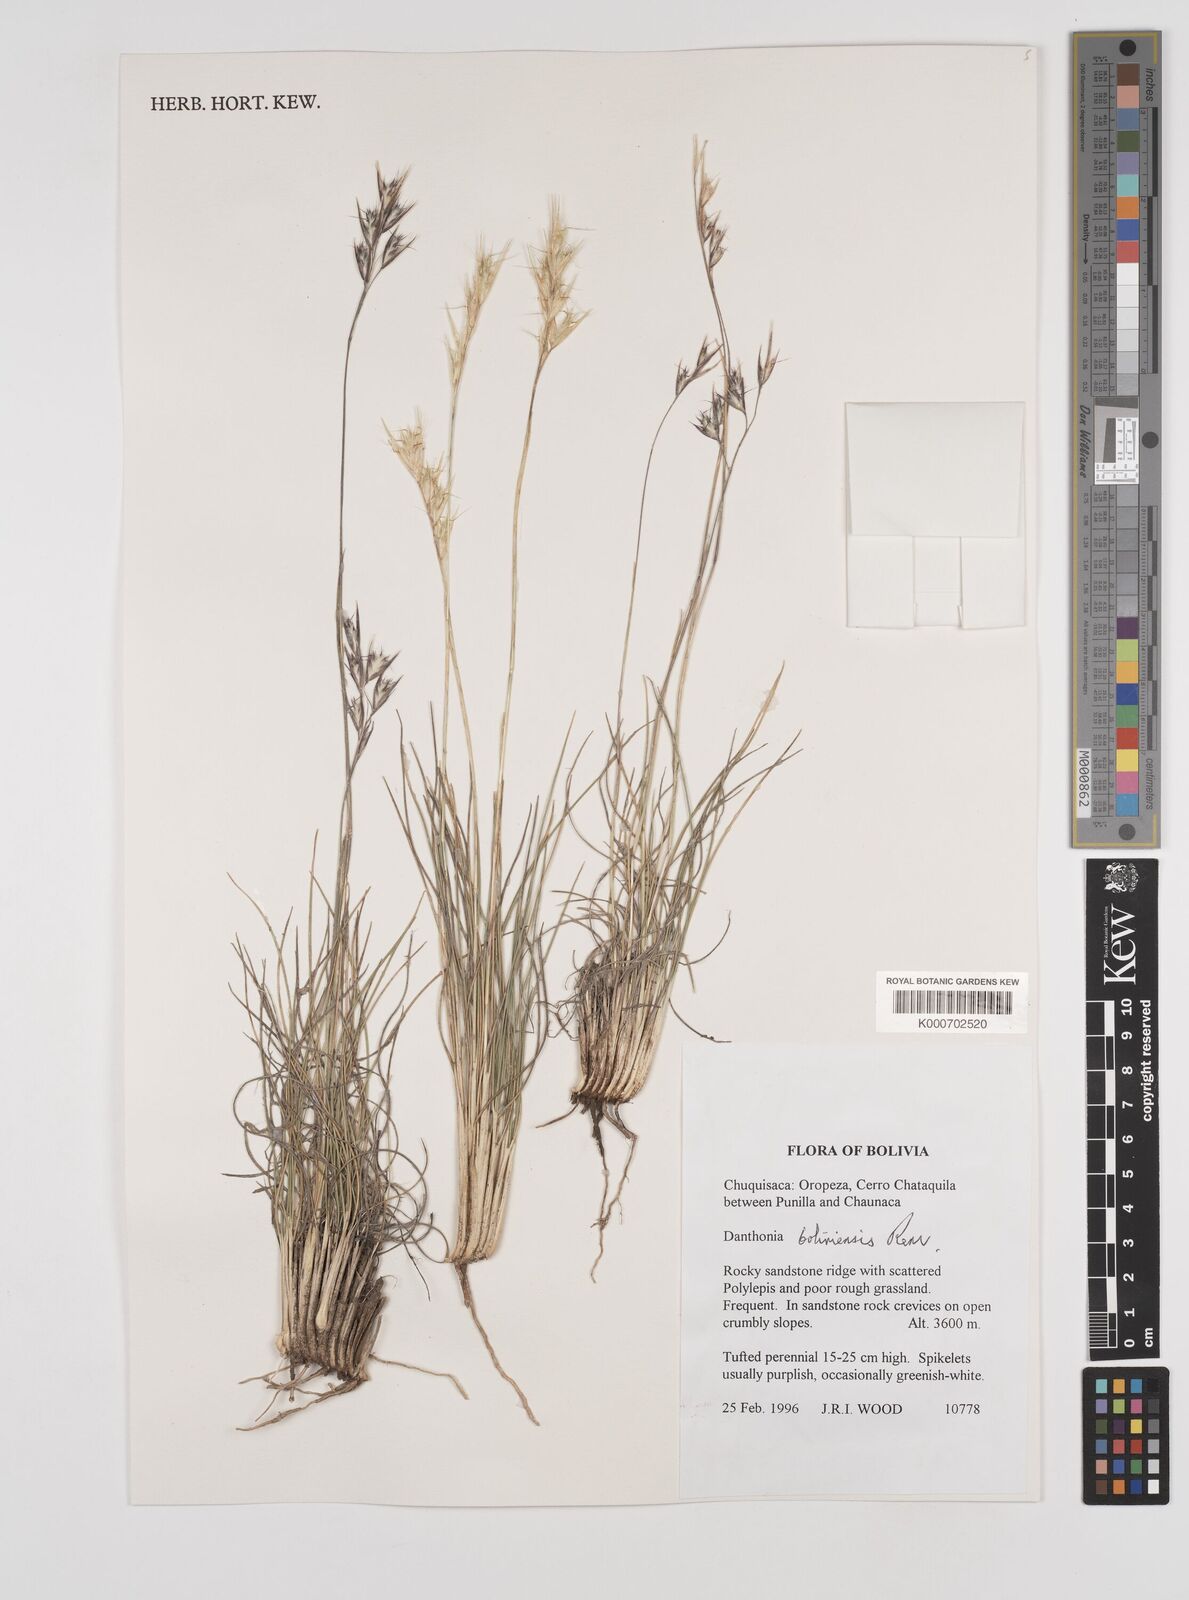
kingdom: Plantae
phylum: Tracheophyta
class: Liliopsida
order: Poales
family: Poaceae
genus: Danthonia
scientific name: Danthonia boliviensis
